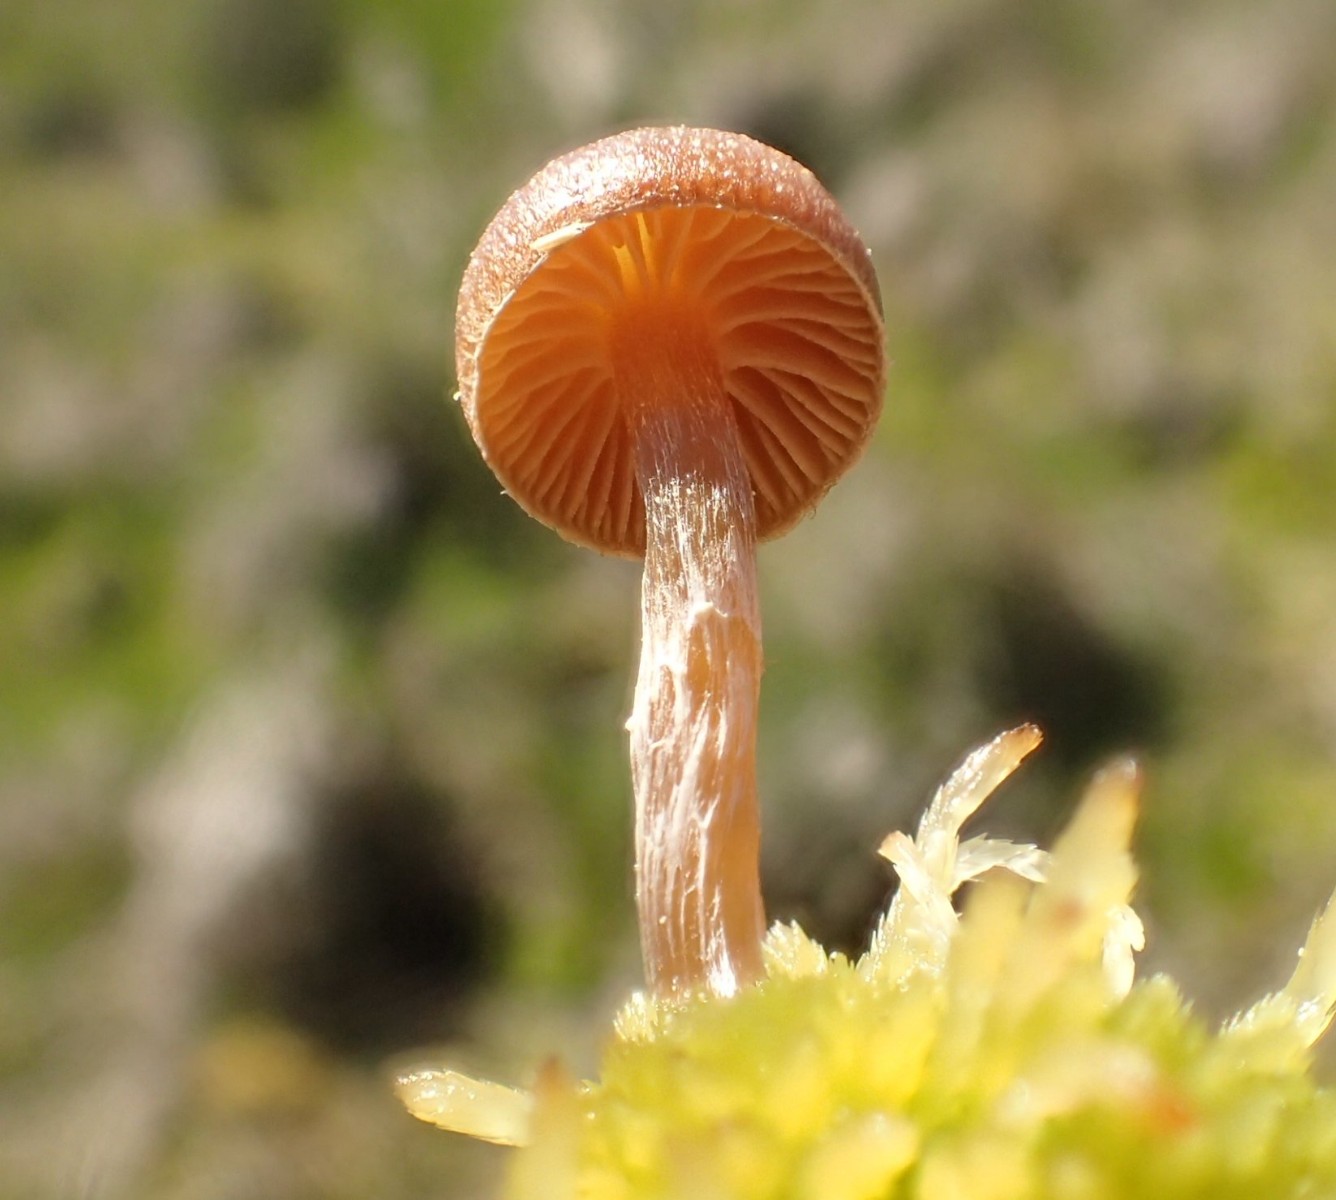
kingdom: Fungi
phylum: Basidiomycota
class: Agaricomycetes
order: Agaricales
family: Hymenogastraceae
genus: Galerina
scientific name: Galerina paludosa
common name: mose-hjelmhat
